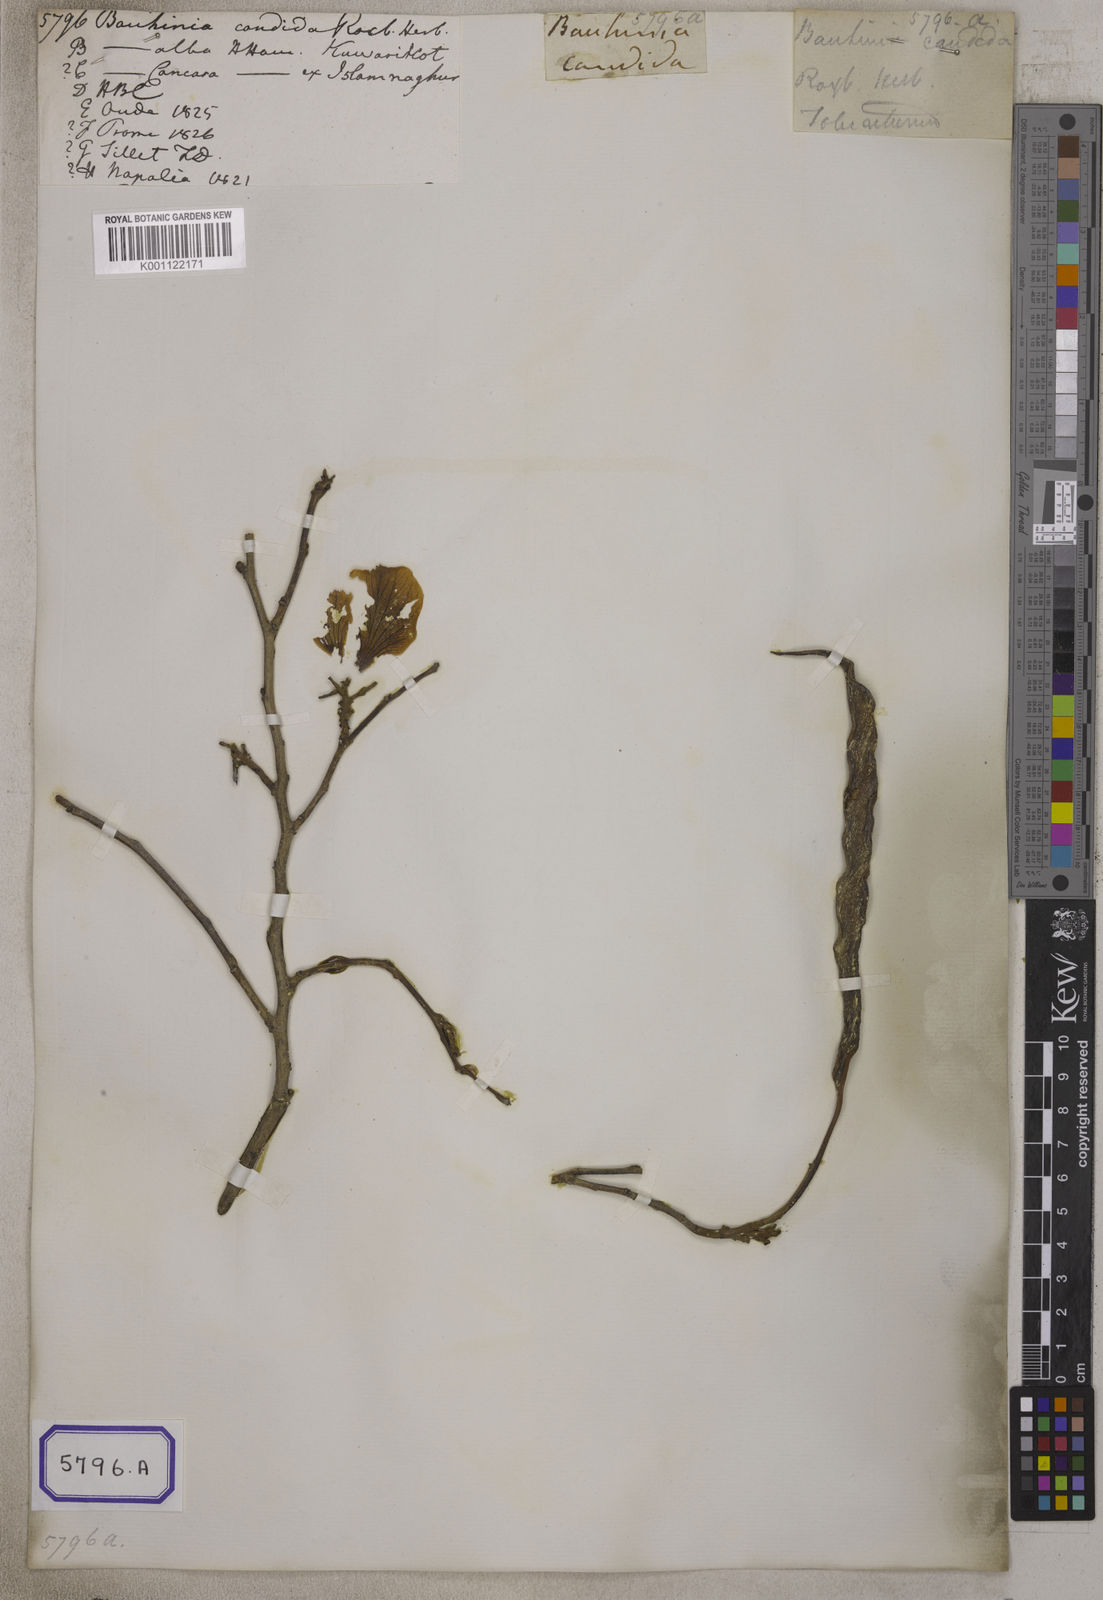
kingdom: Plantae
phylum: Tracheophyta
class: Magnoliopsida
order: Fabales
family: Fabaceae
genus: Bauhinia
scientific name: Bauhinia variegata
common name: Mountain ebony
